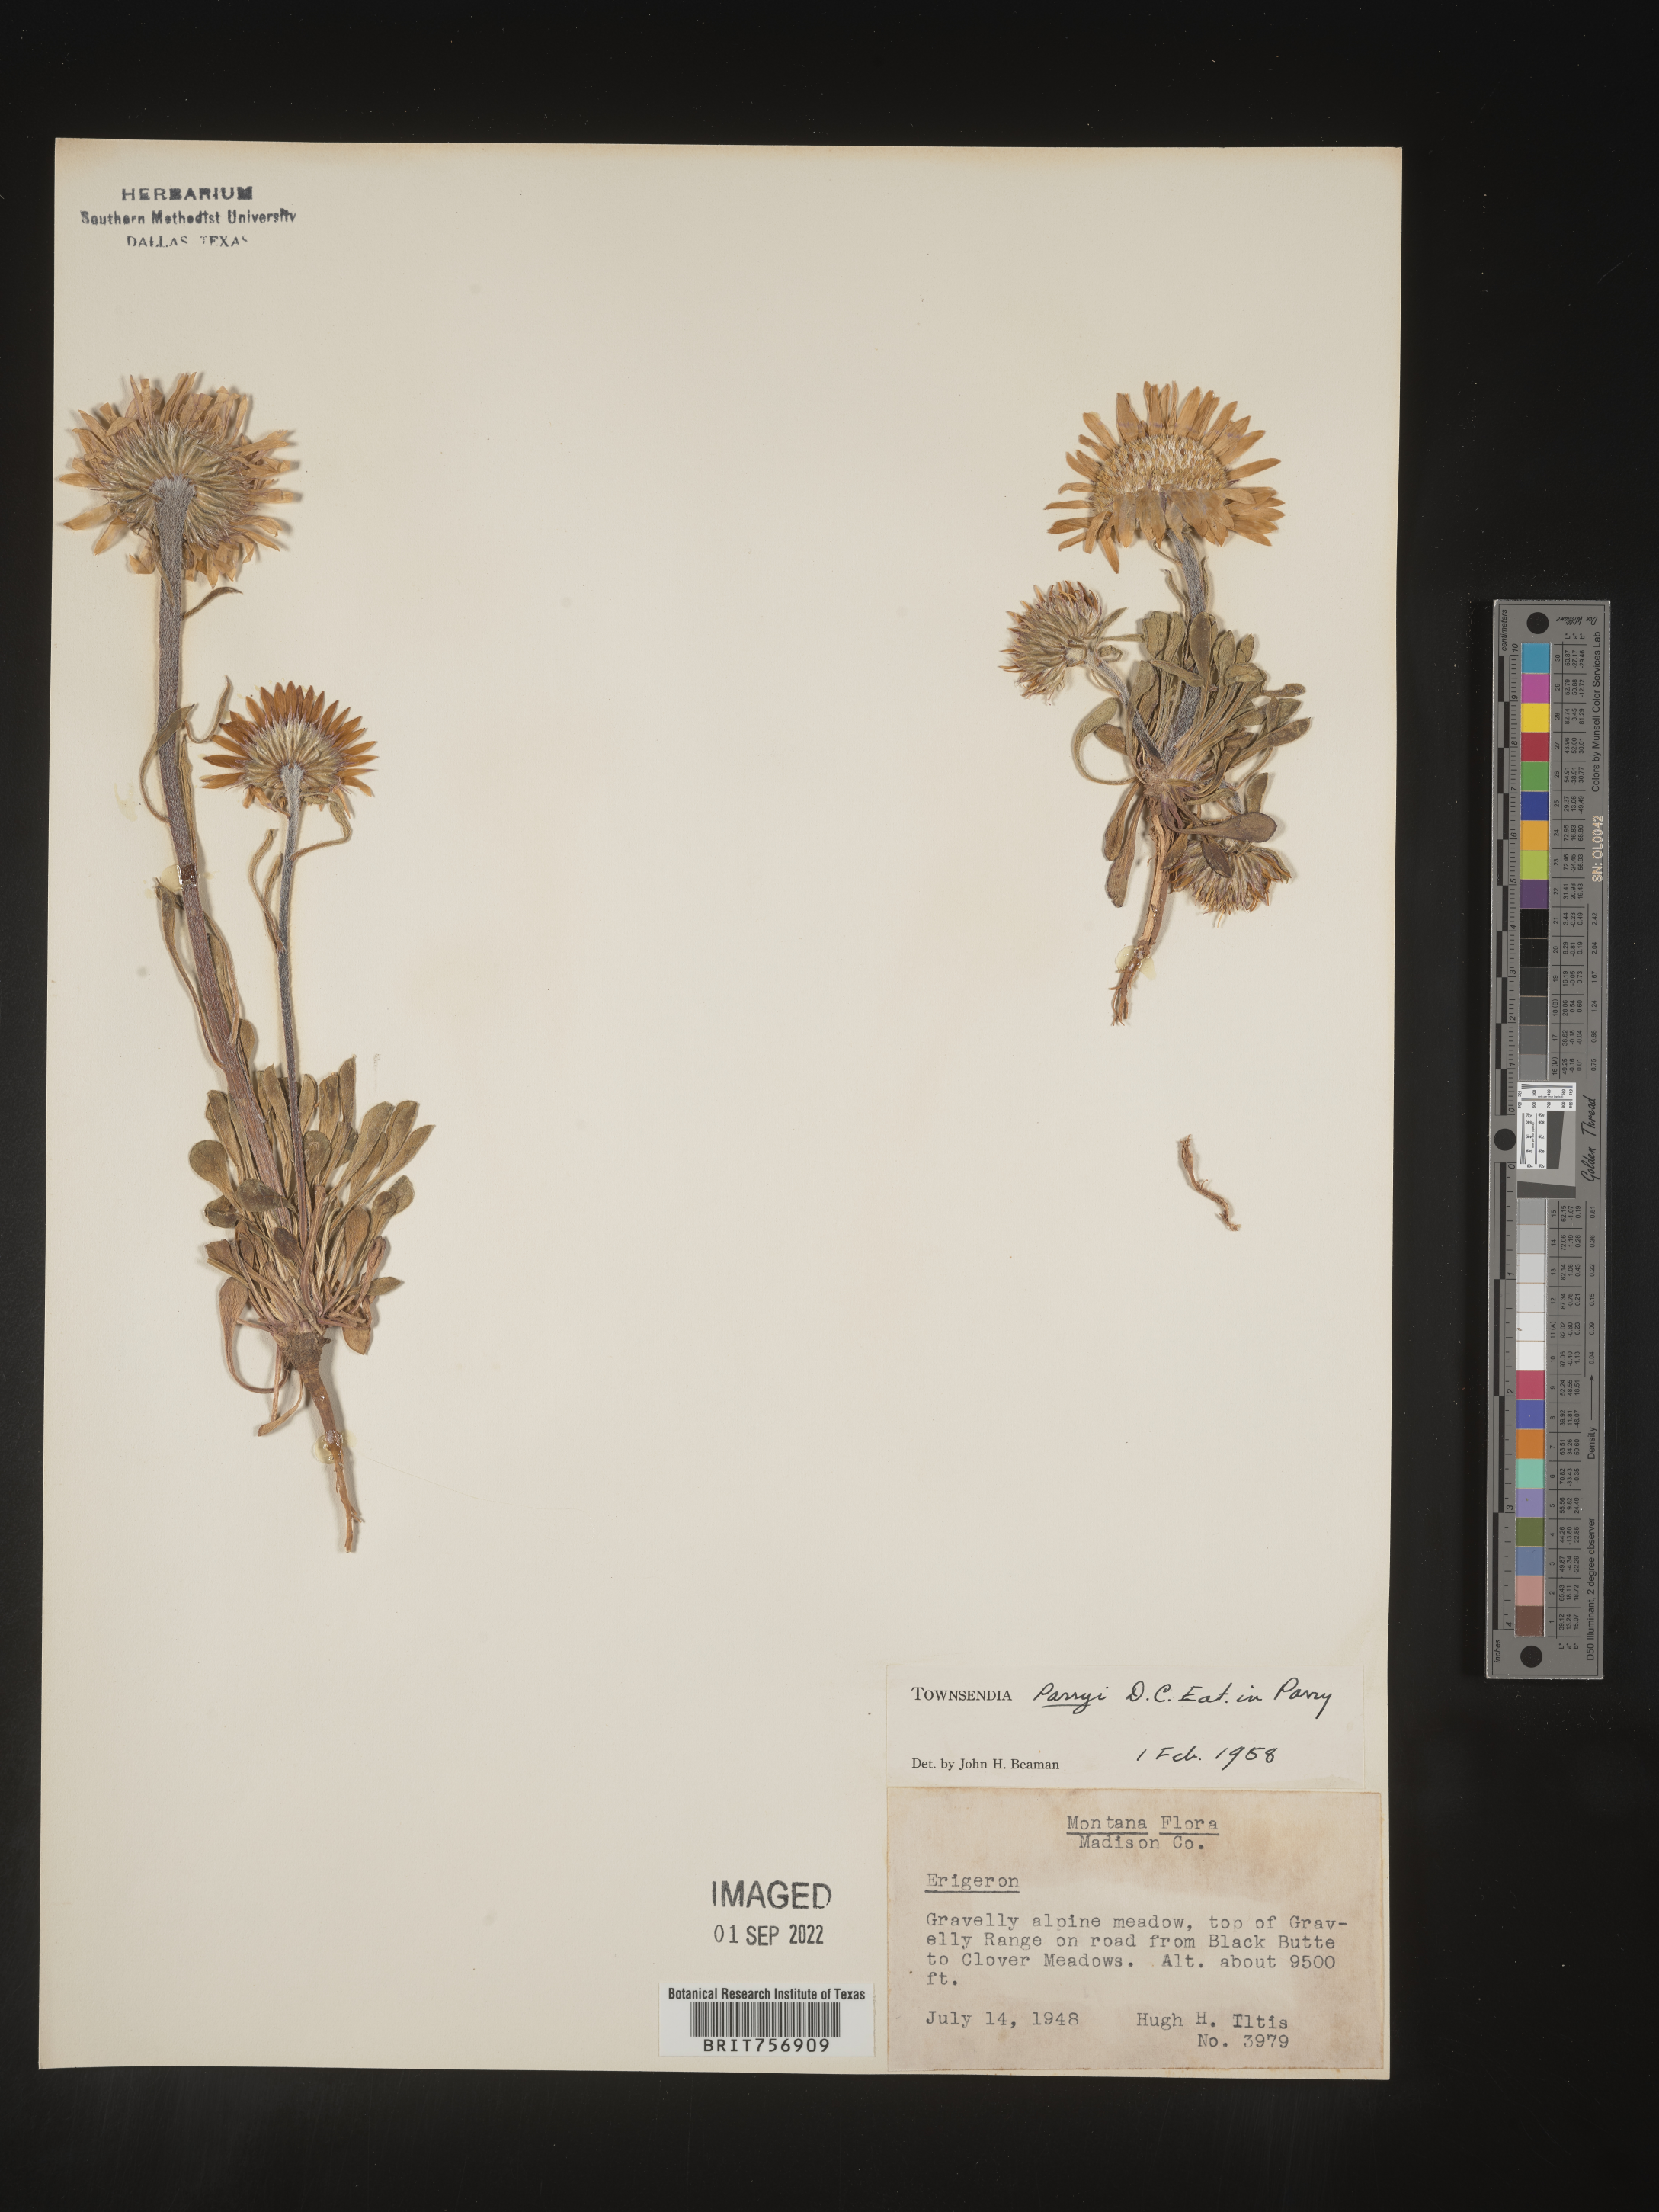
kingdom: Plantae
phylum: Tracheophyta
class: Magnoliopsida
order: Asterales
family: Asteraceae
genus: Townsendia
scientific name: Townsendia parryi
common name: Parry's townsend daisy
